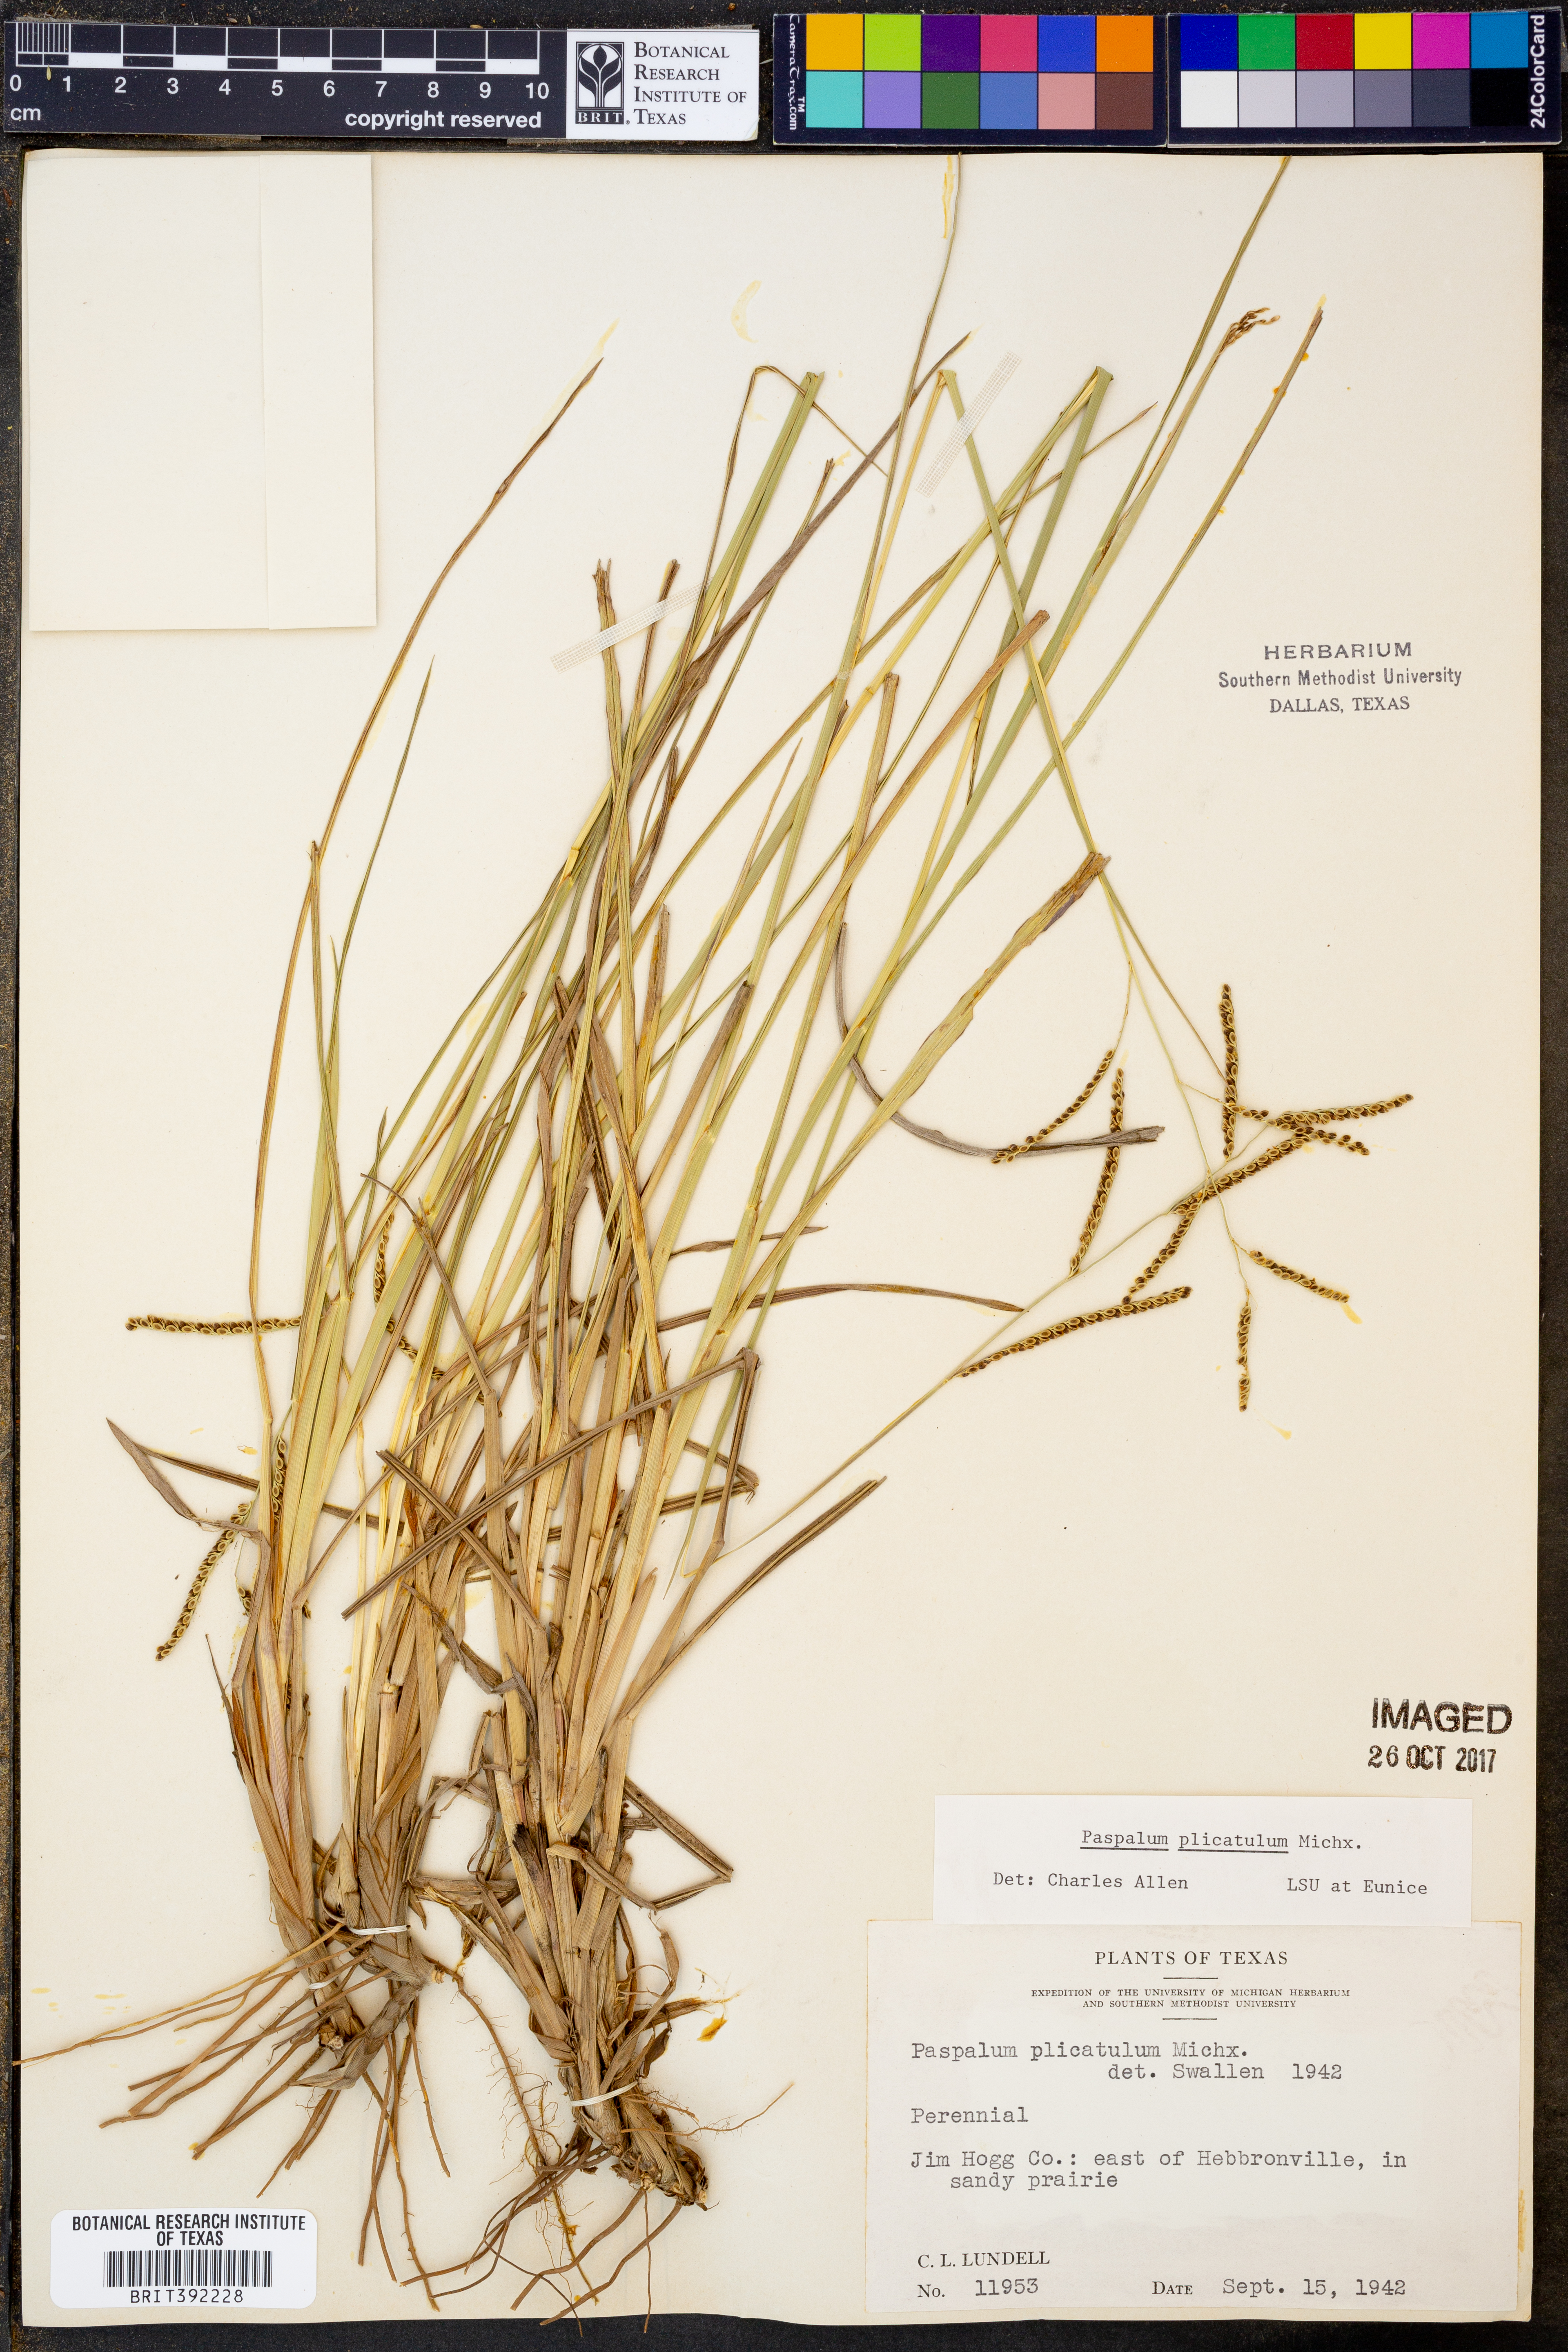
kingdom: Plantae
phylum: Tracheophyta
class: Liliopsida
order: Poales
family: Poaceae
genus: Paspalum
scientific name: Paspalum plicatulum
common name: Top paspalum
